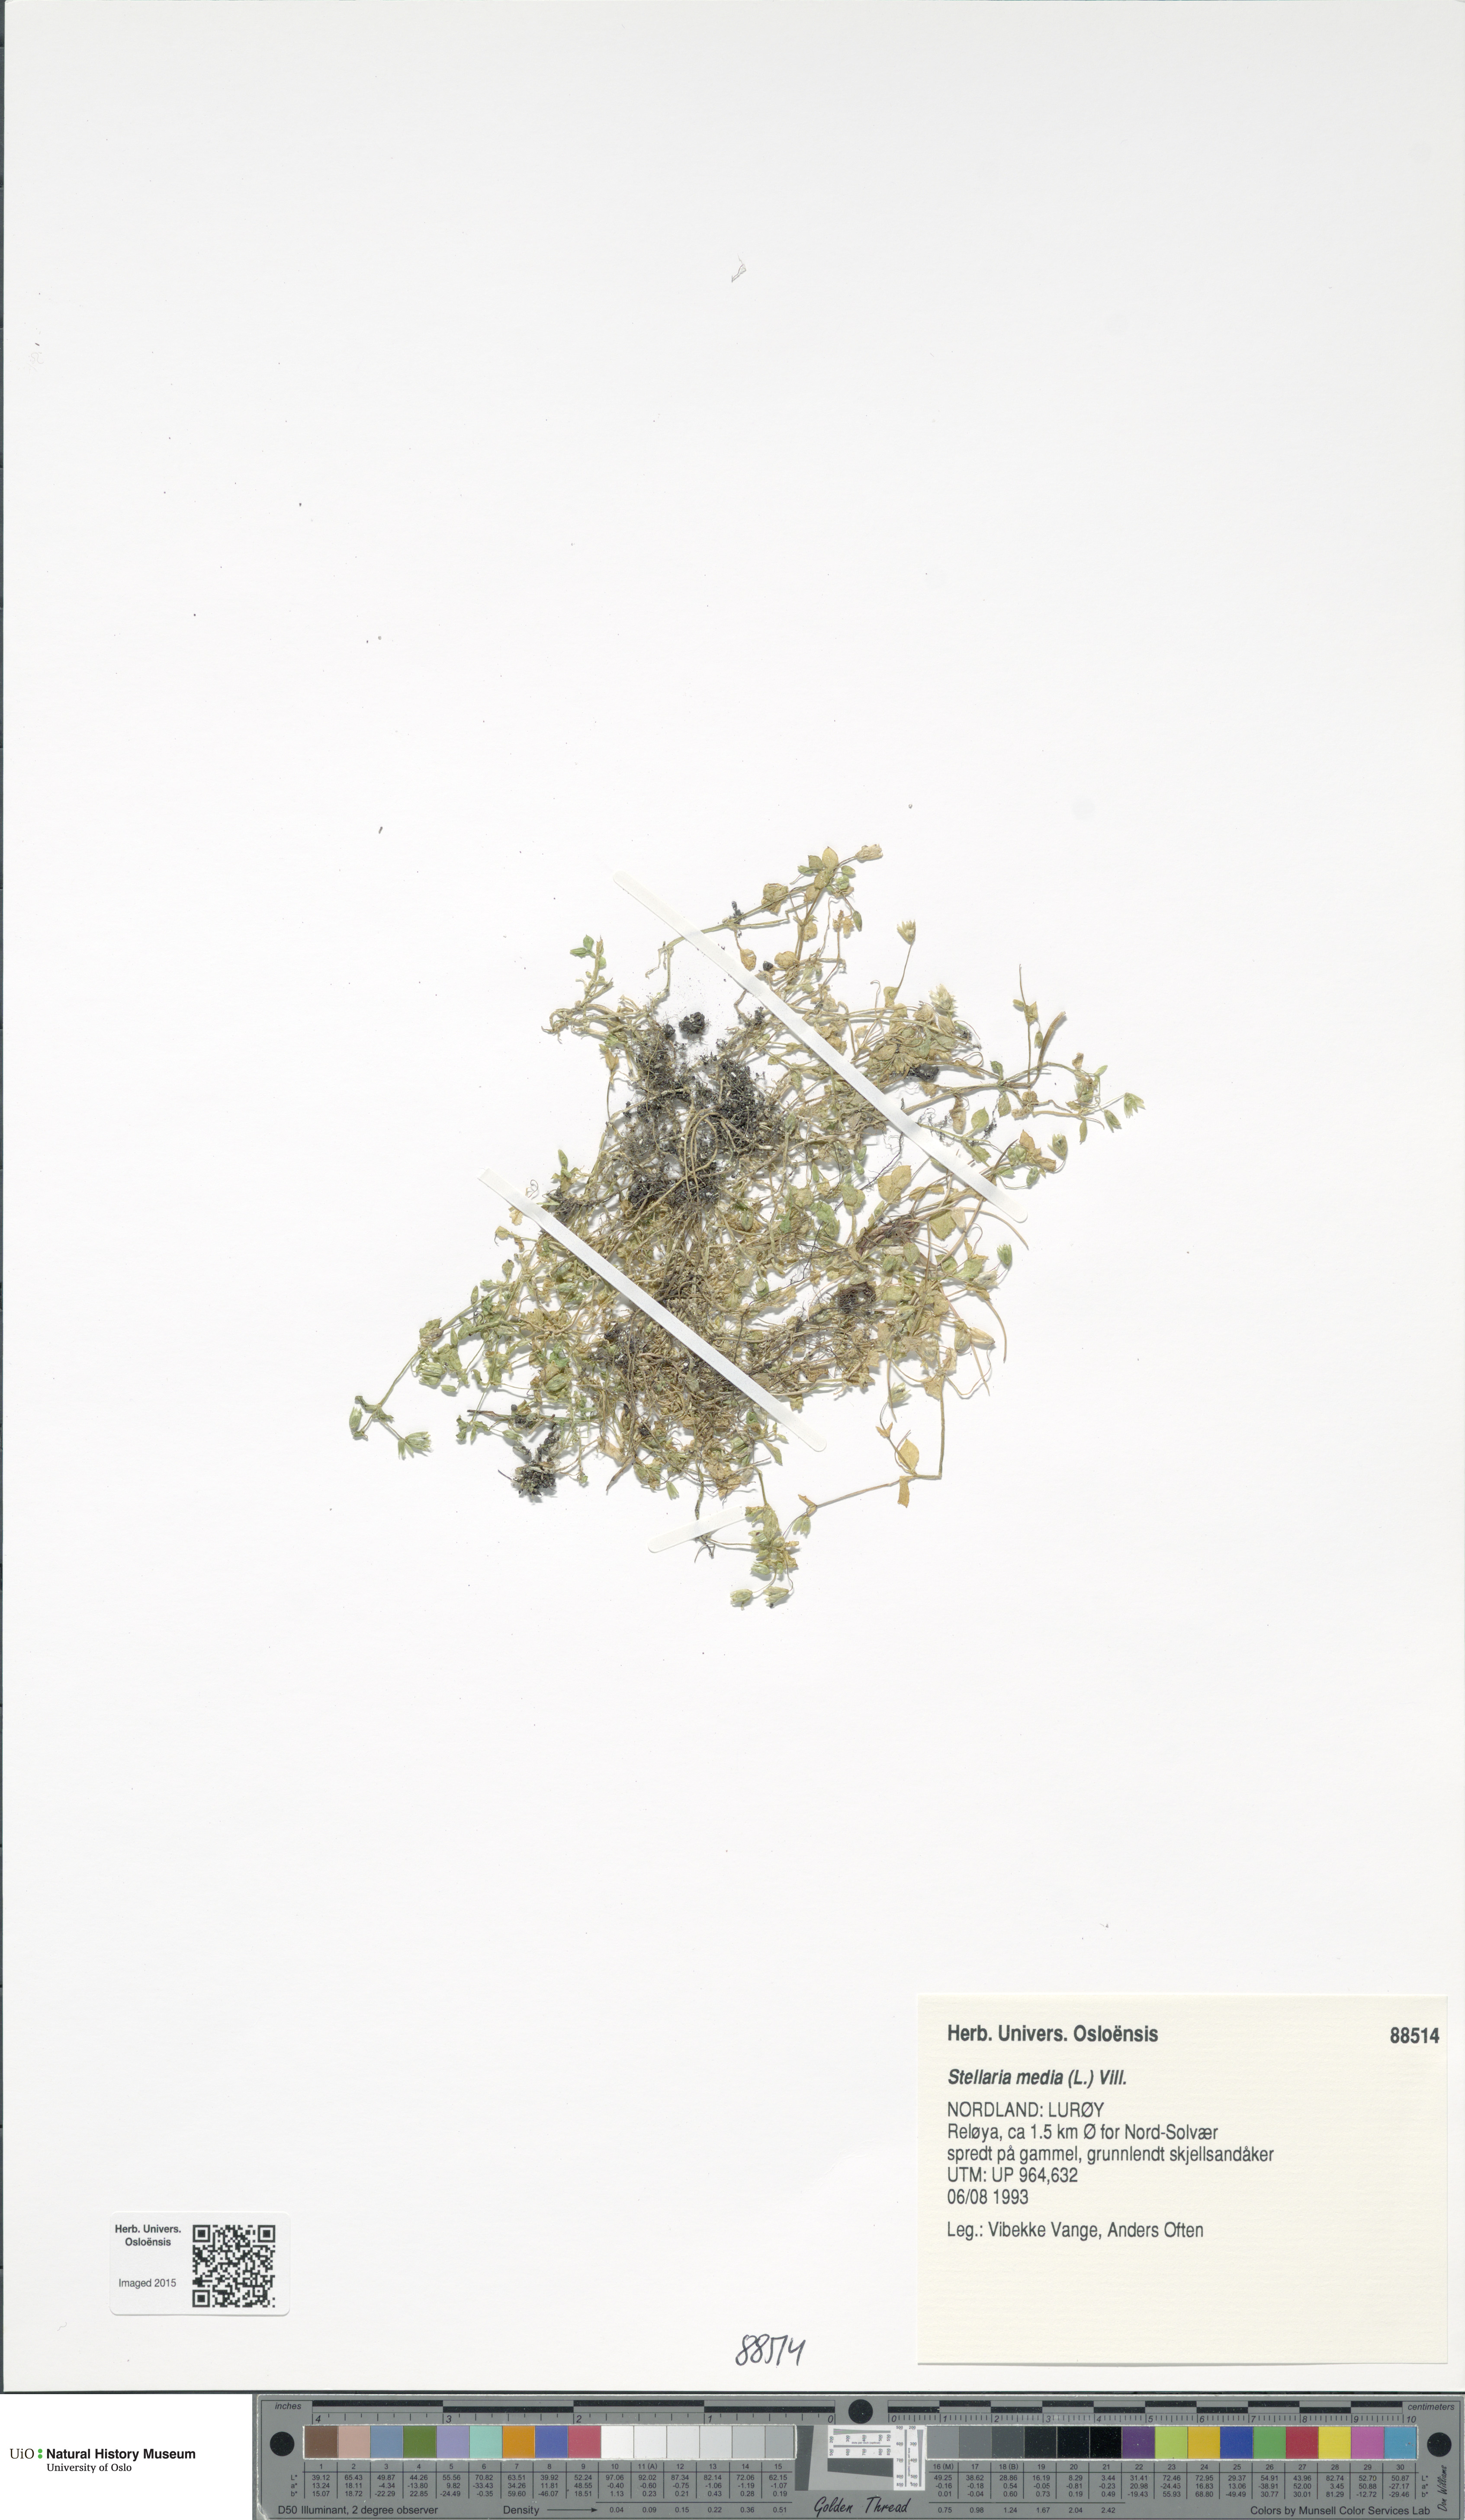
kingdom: Plantae
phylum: Tracheophyta
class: Magnoliopsida
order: Caryophyllales
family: Caryophyllaceae
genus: Stellaria
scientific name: Stellaria media
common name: Common chickweed
